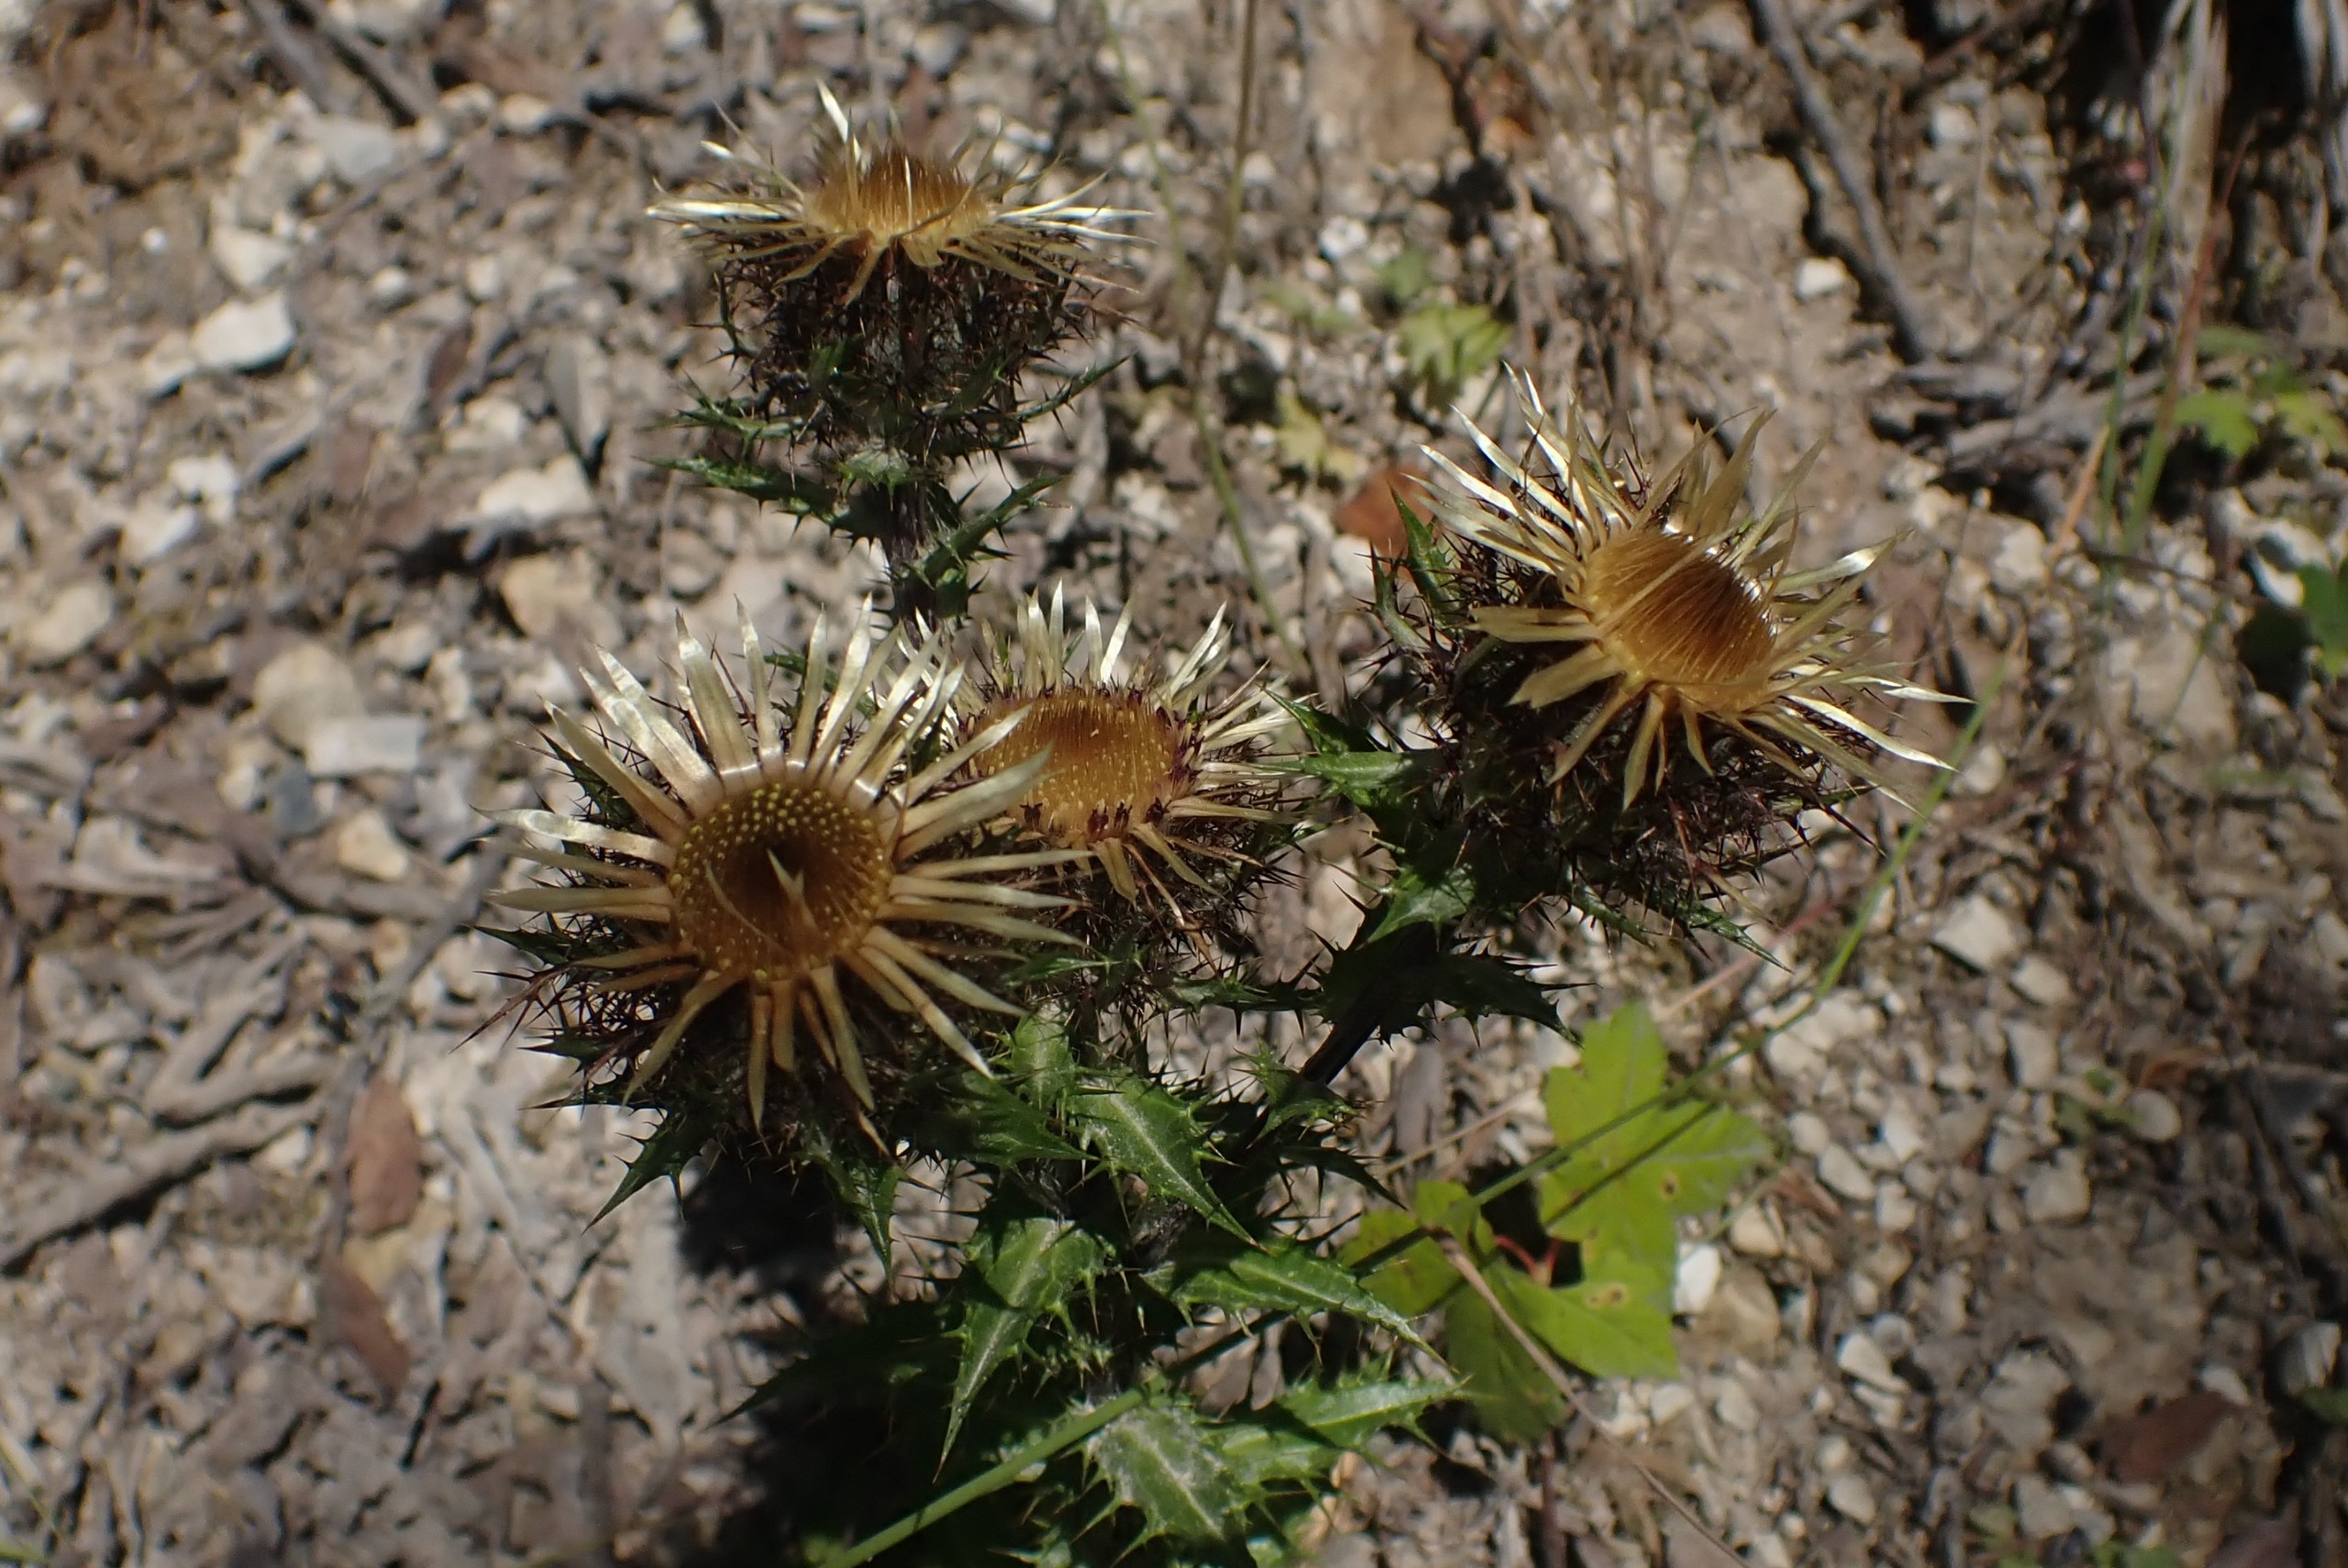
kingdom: Plantae
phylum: Tracheophyta
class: Magnoliopsida
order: Asterales
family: Asteraceae
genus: Carlina
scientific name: Carlina vulgaris
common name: Bakketidsel
